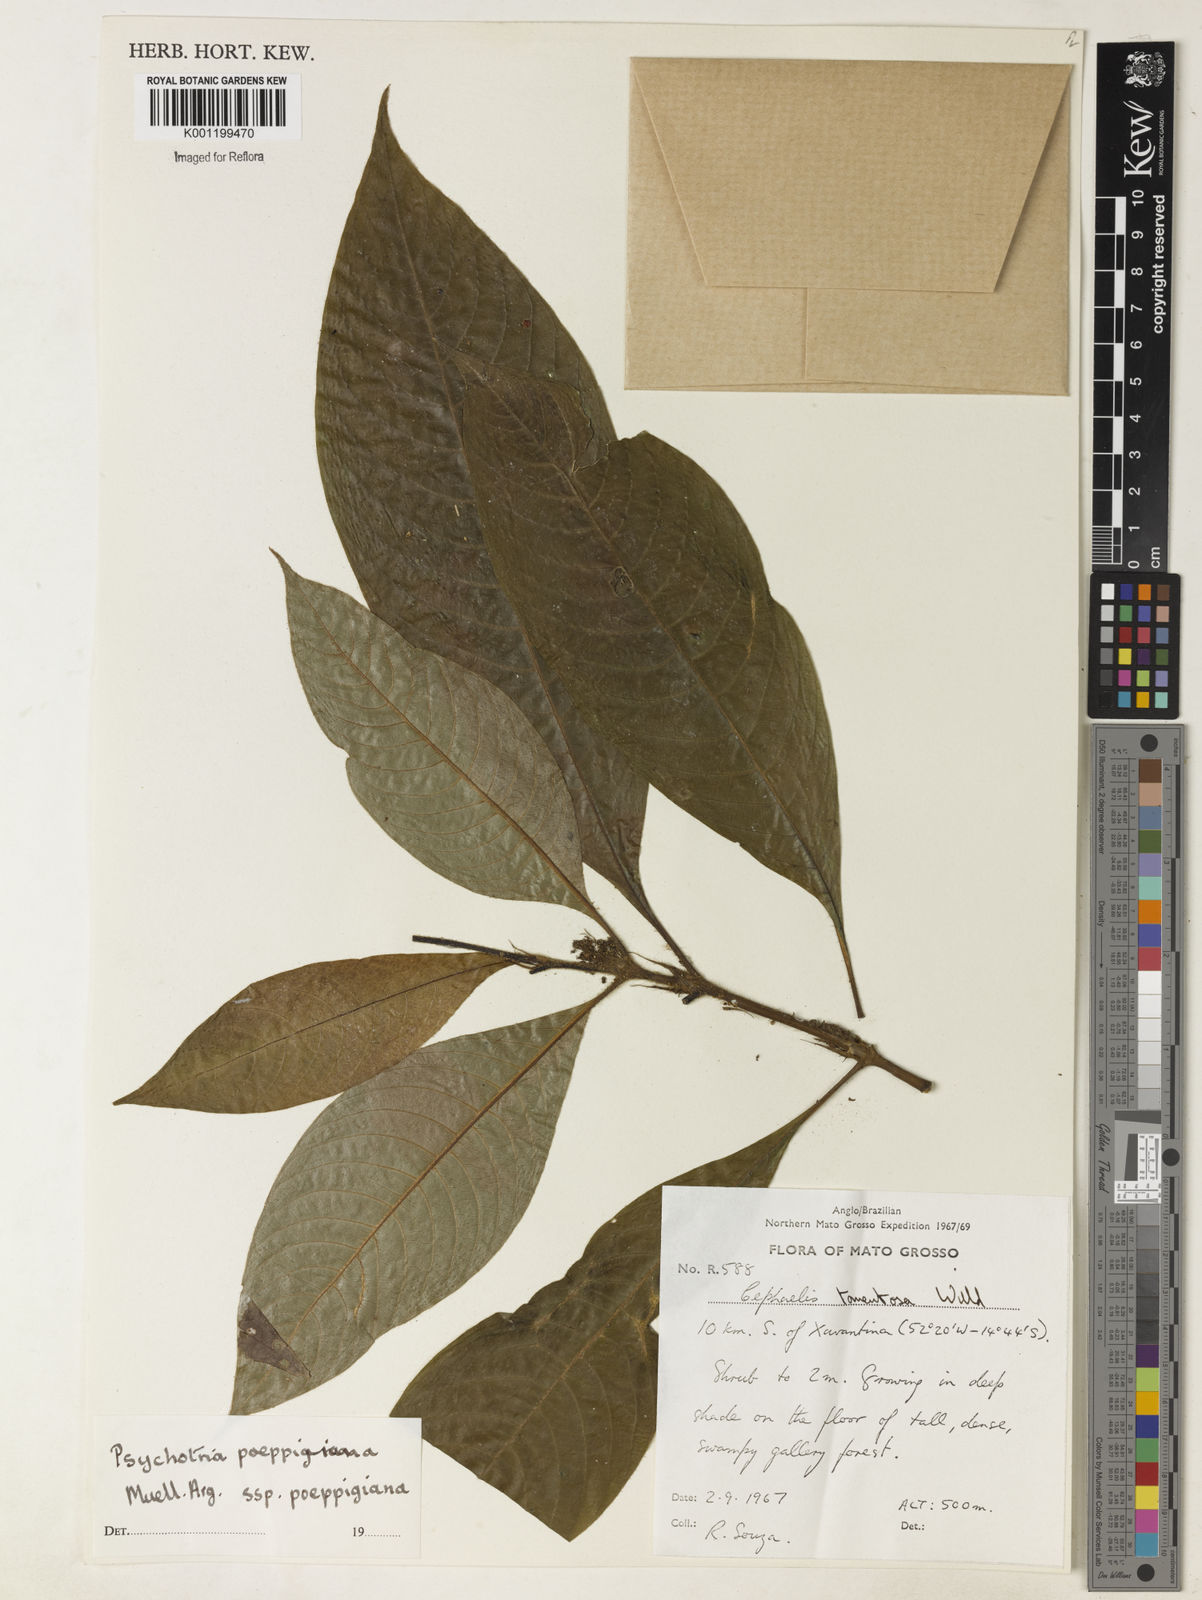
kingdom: Plantae
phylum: Tracheophyta
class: Magnoliopsida
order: Gentianales
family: Rubiaceae
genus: Psychotria
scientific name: Psychotria
